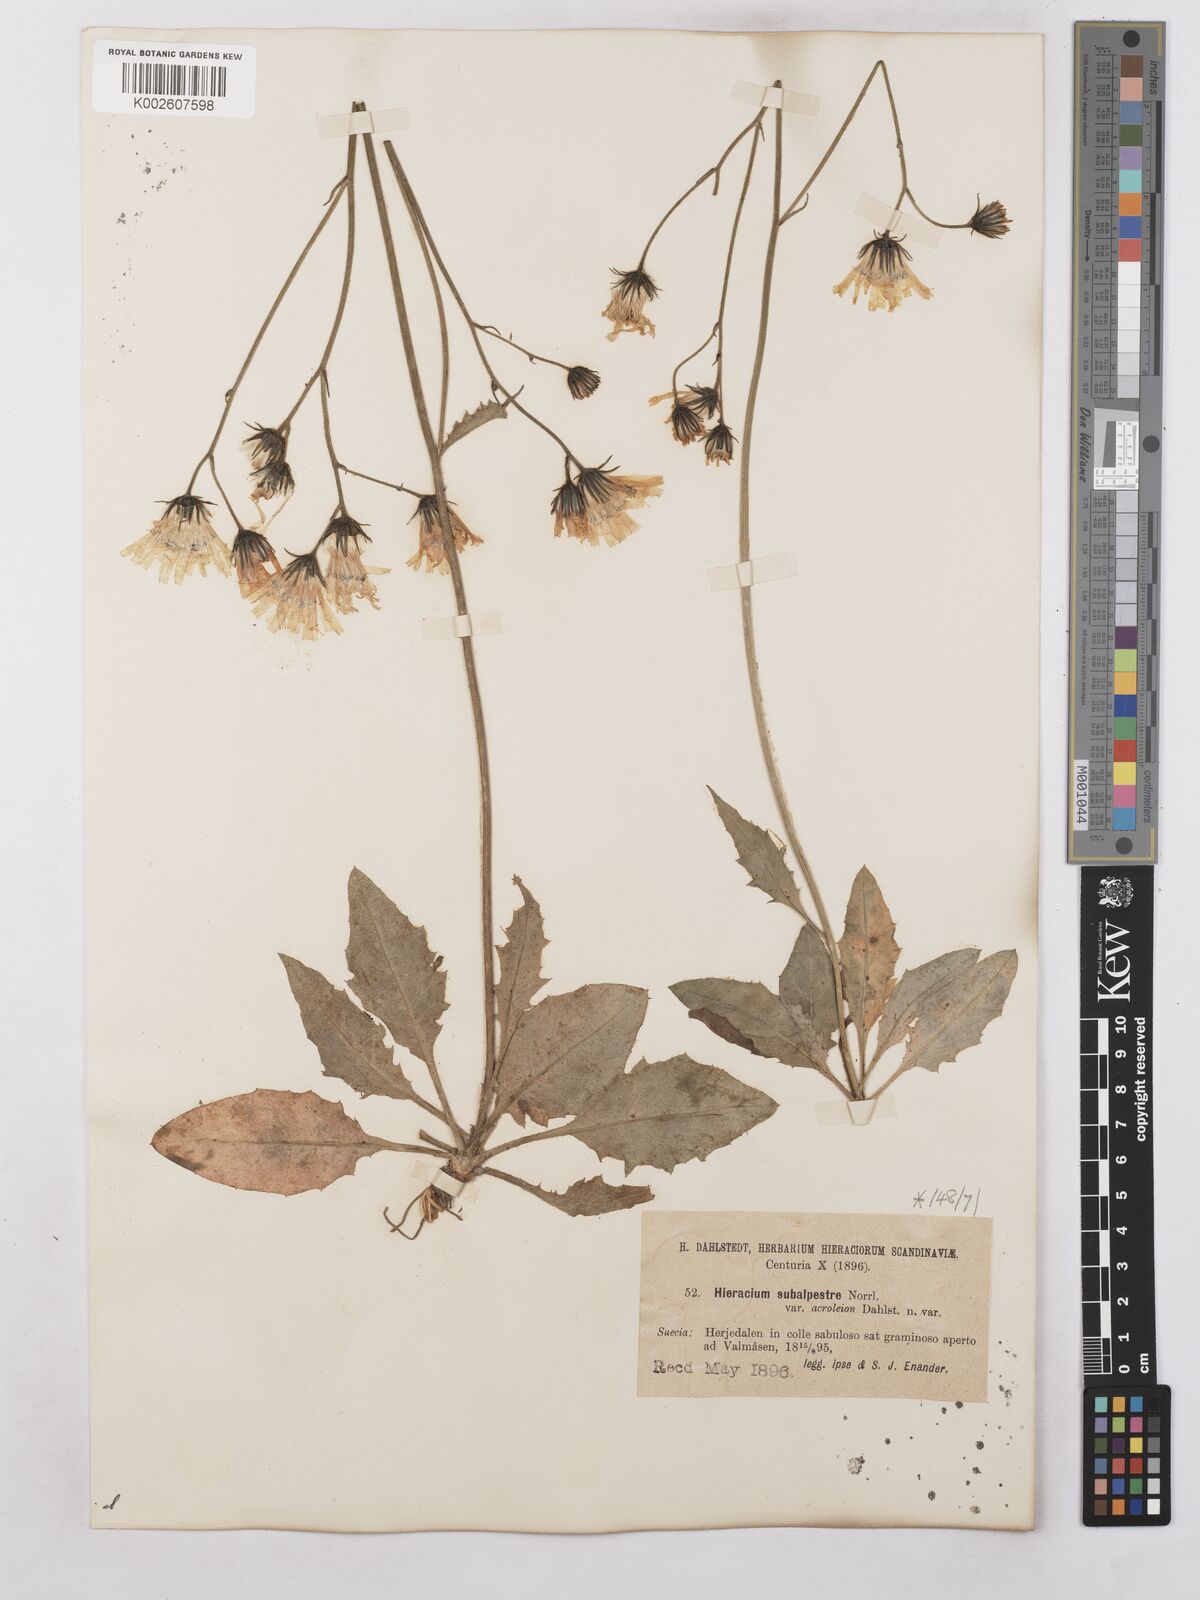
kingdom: Plantae
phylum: Tracheophyta
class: Magnoliopsida
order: Asterales
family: Asteraceae
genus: Hieracium
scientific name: Hieracium subramosum
